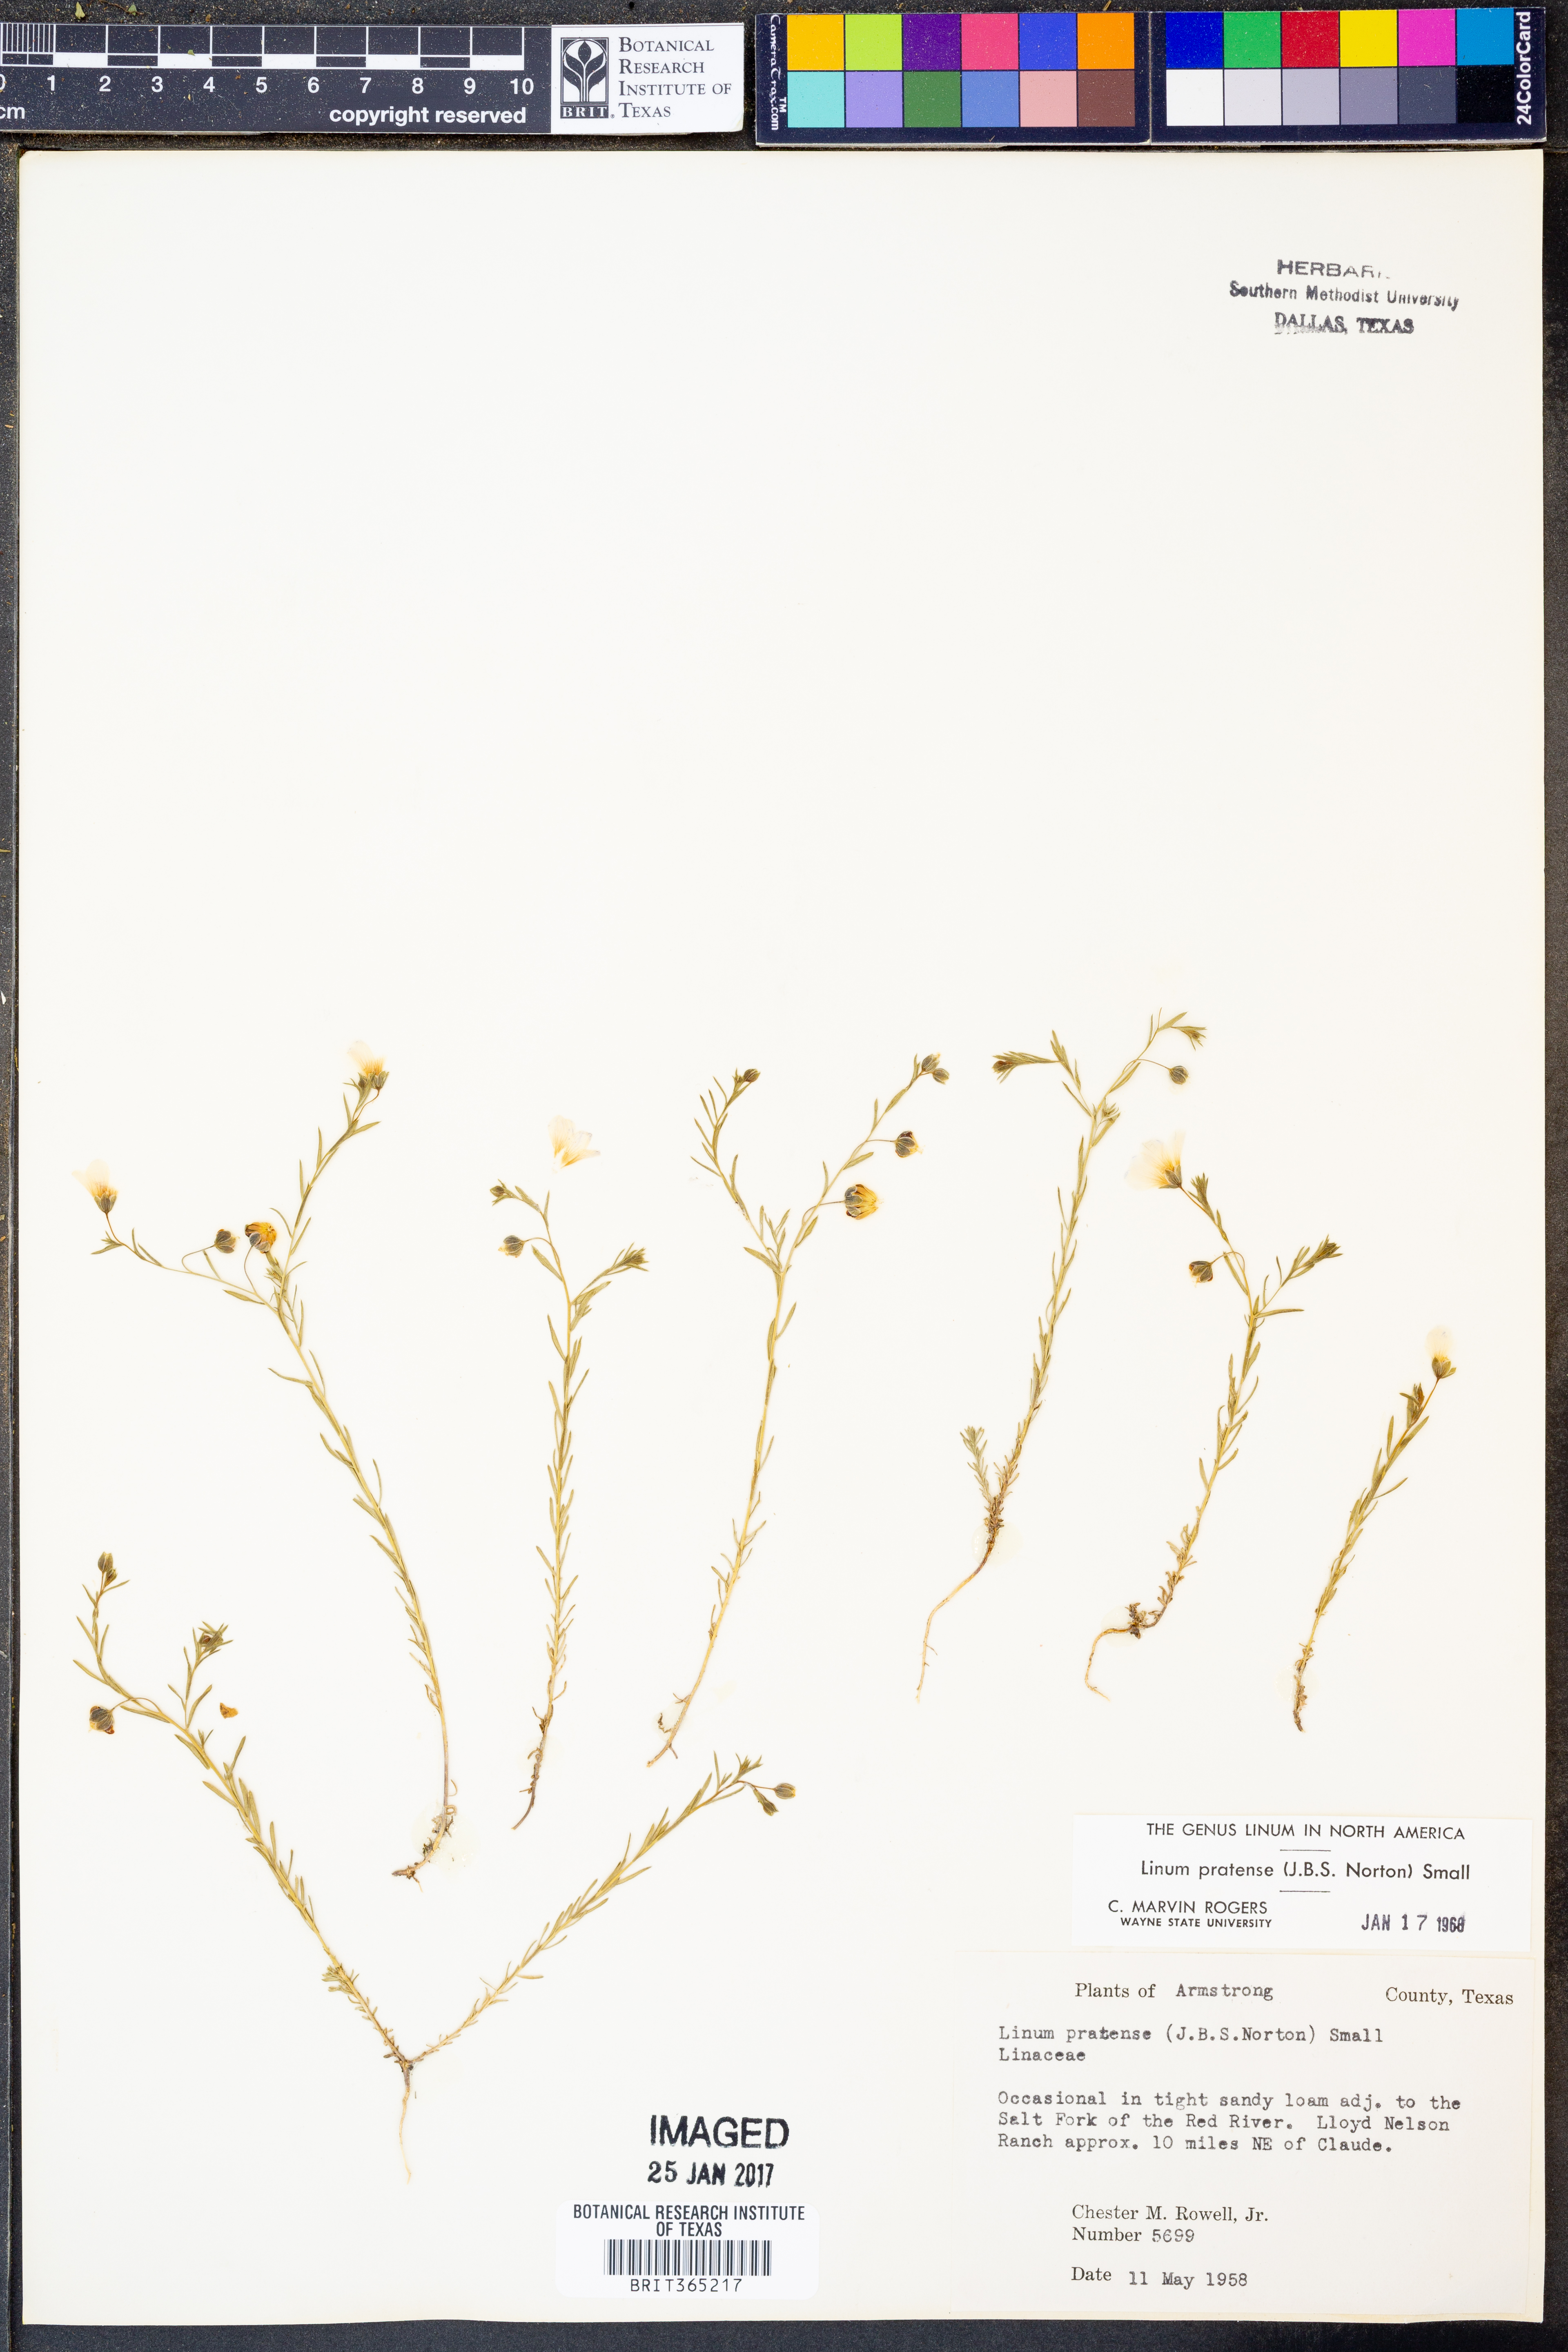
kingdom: Plantae
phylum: Tracheophyta
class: Magnoliopsida
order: Malpighiales
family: Linaceae
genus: Linum
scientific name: Linum pratense
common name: Norton's flax
